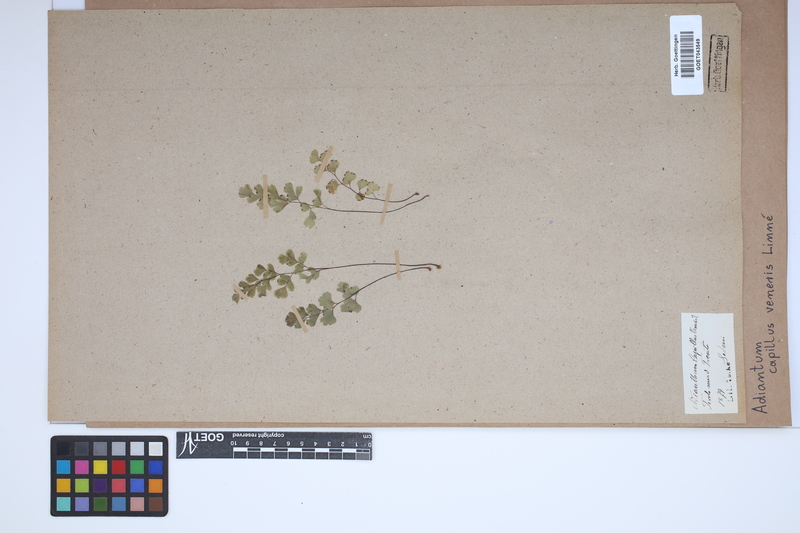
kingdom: Plantae
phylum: Tracheophyta
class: Polypodiopsida
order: Polypodiales
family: Pteridaceae
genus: Adiantum
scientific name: Adiantum capillus-veneris
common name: Maidenhair fern
